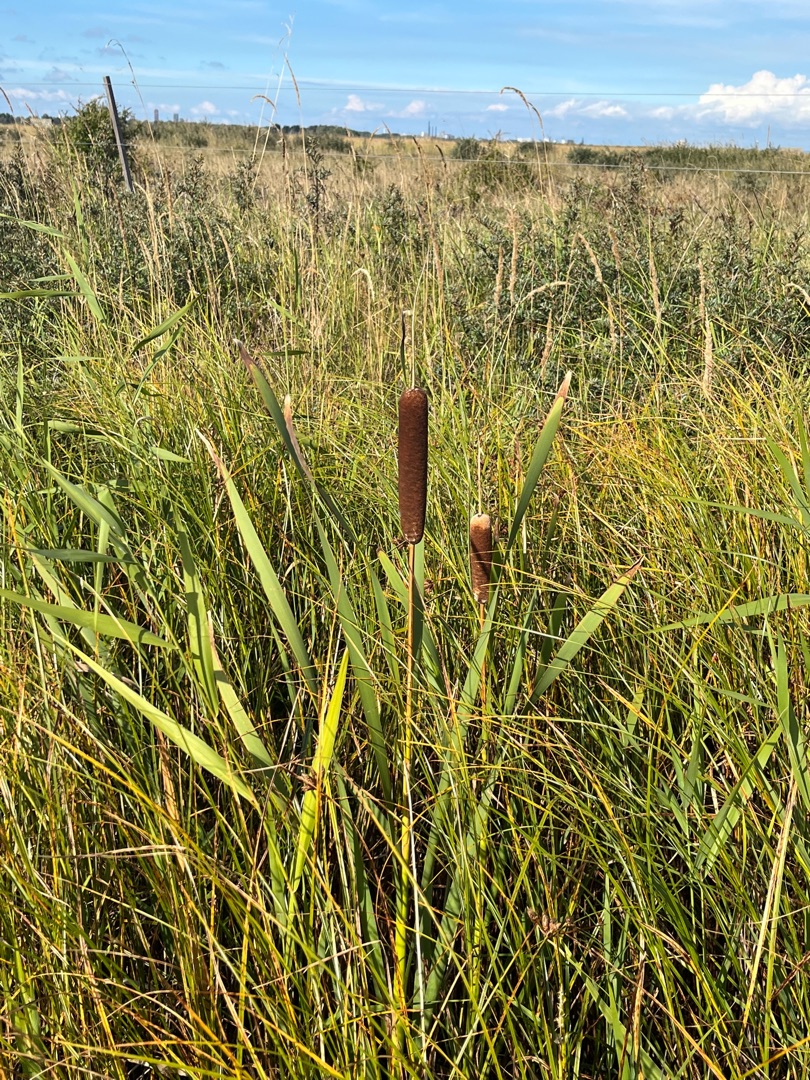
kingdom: Plantae
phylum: Tracheophyta
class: Liliopsida
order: Poales
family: Typhaceae
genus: Typha
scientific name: Typha latifolia
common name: Bredbladet dunhammer
